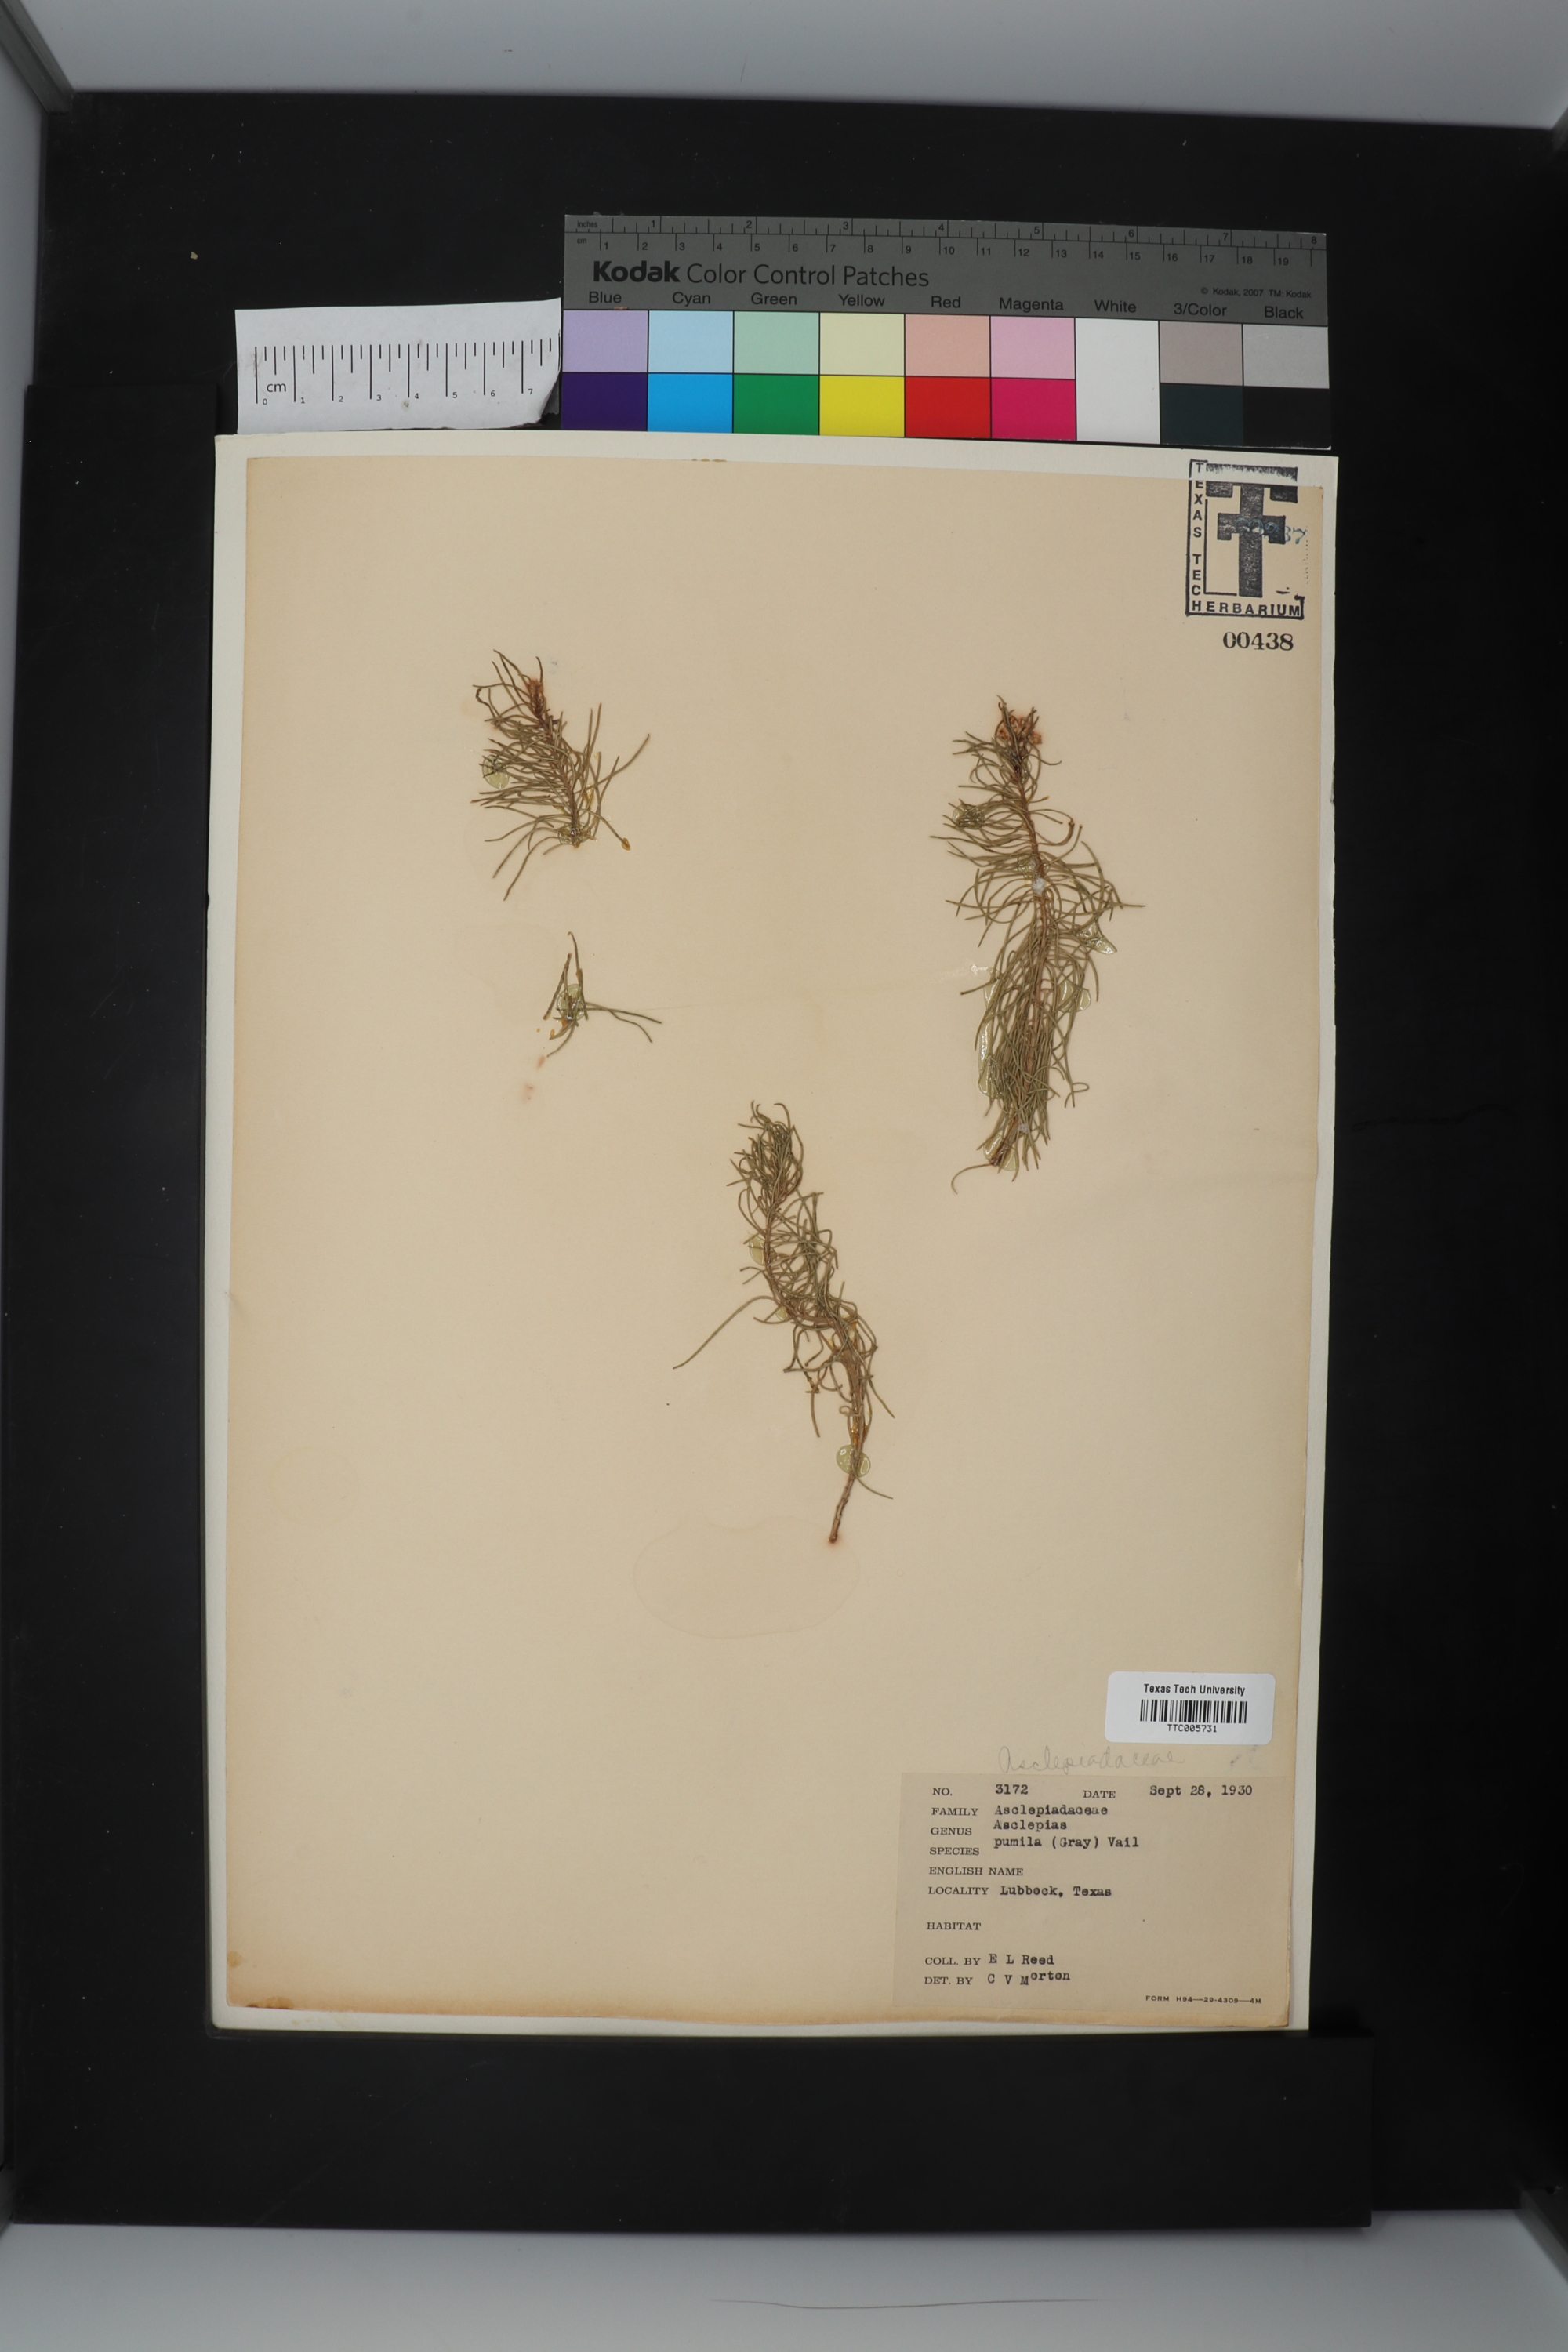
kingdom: Plantae
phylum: Tracheophyta
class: Magnoliopsida
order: Gentianales
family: Apocynaceae
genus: Asclepias
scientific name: Asclepias pumila
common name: Dwarf milkweed
